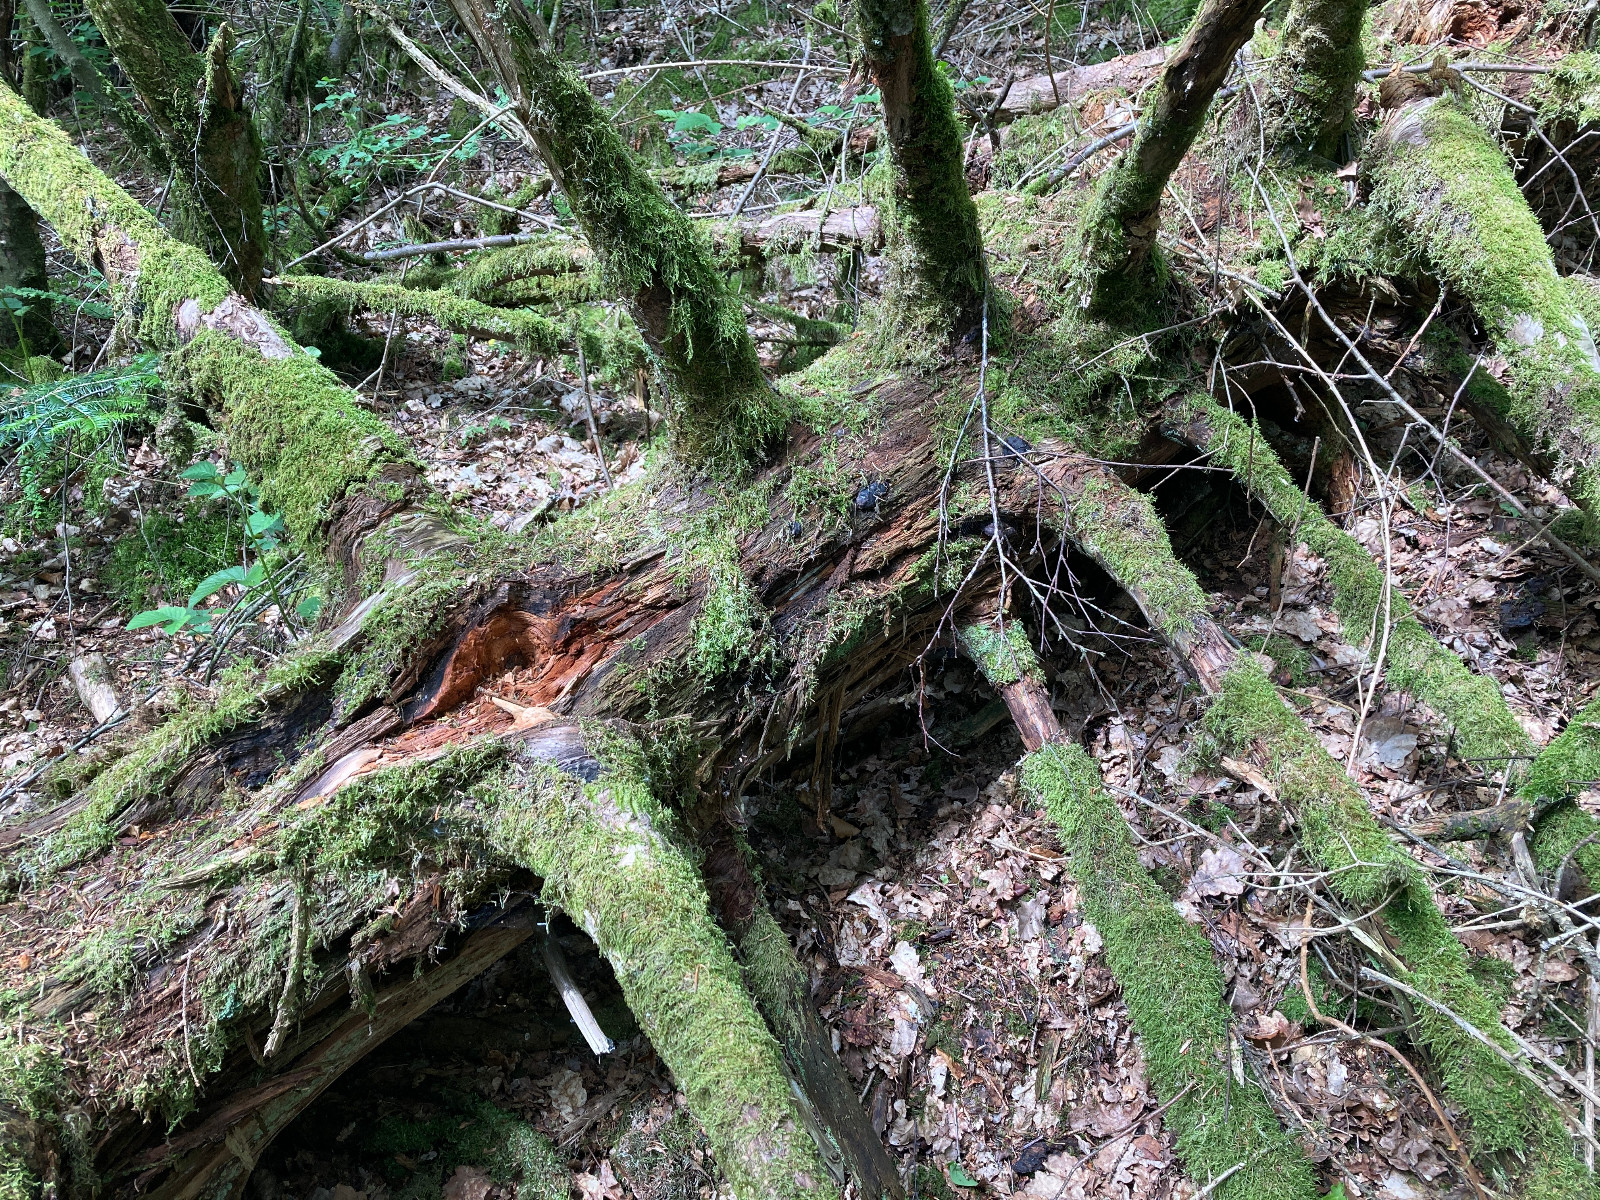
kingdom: Fungi
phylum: Ascomycota
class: Sordariomycetes
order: Boliniales
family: Boliniaceae
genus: Camarops
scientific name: Camarops tubulina
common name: knudret kulsnegl
